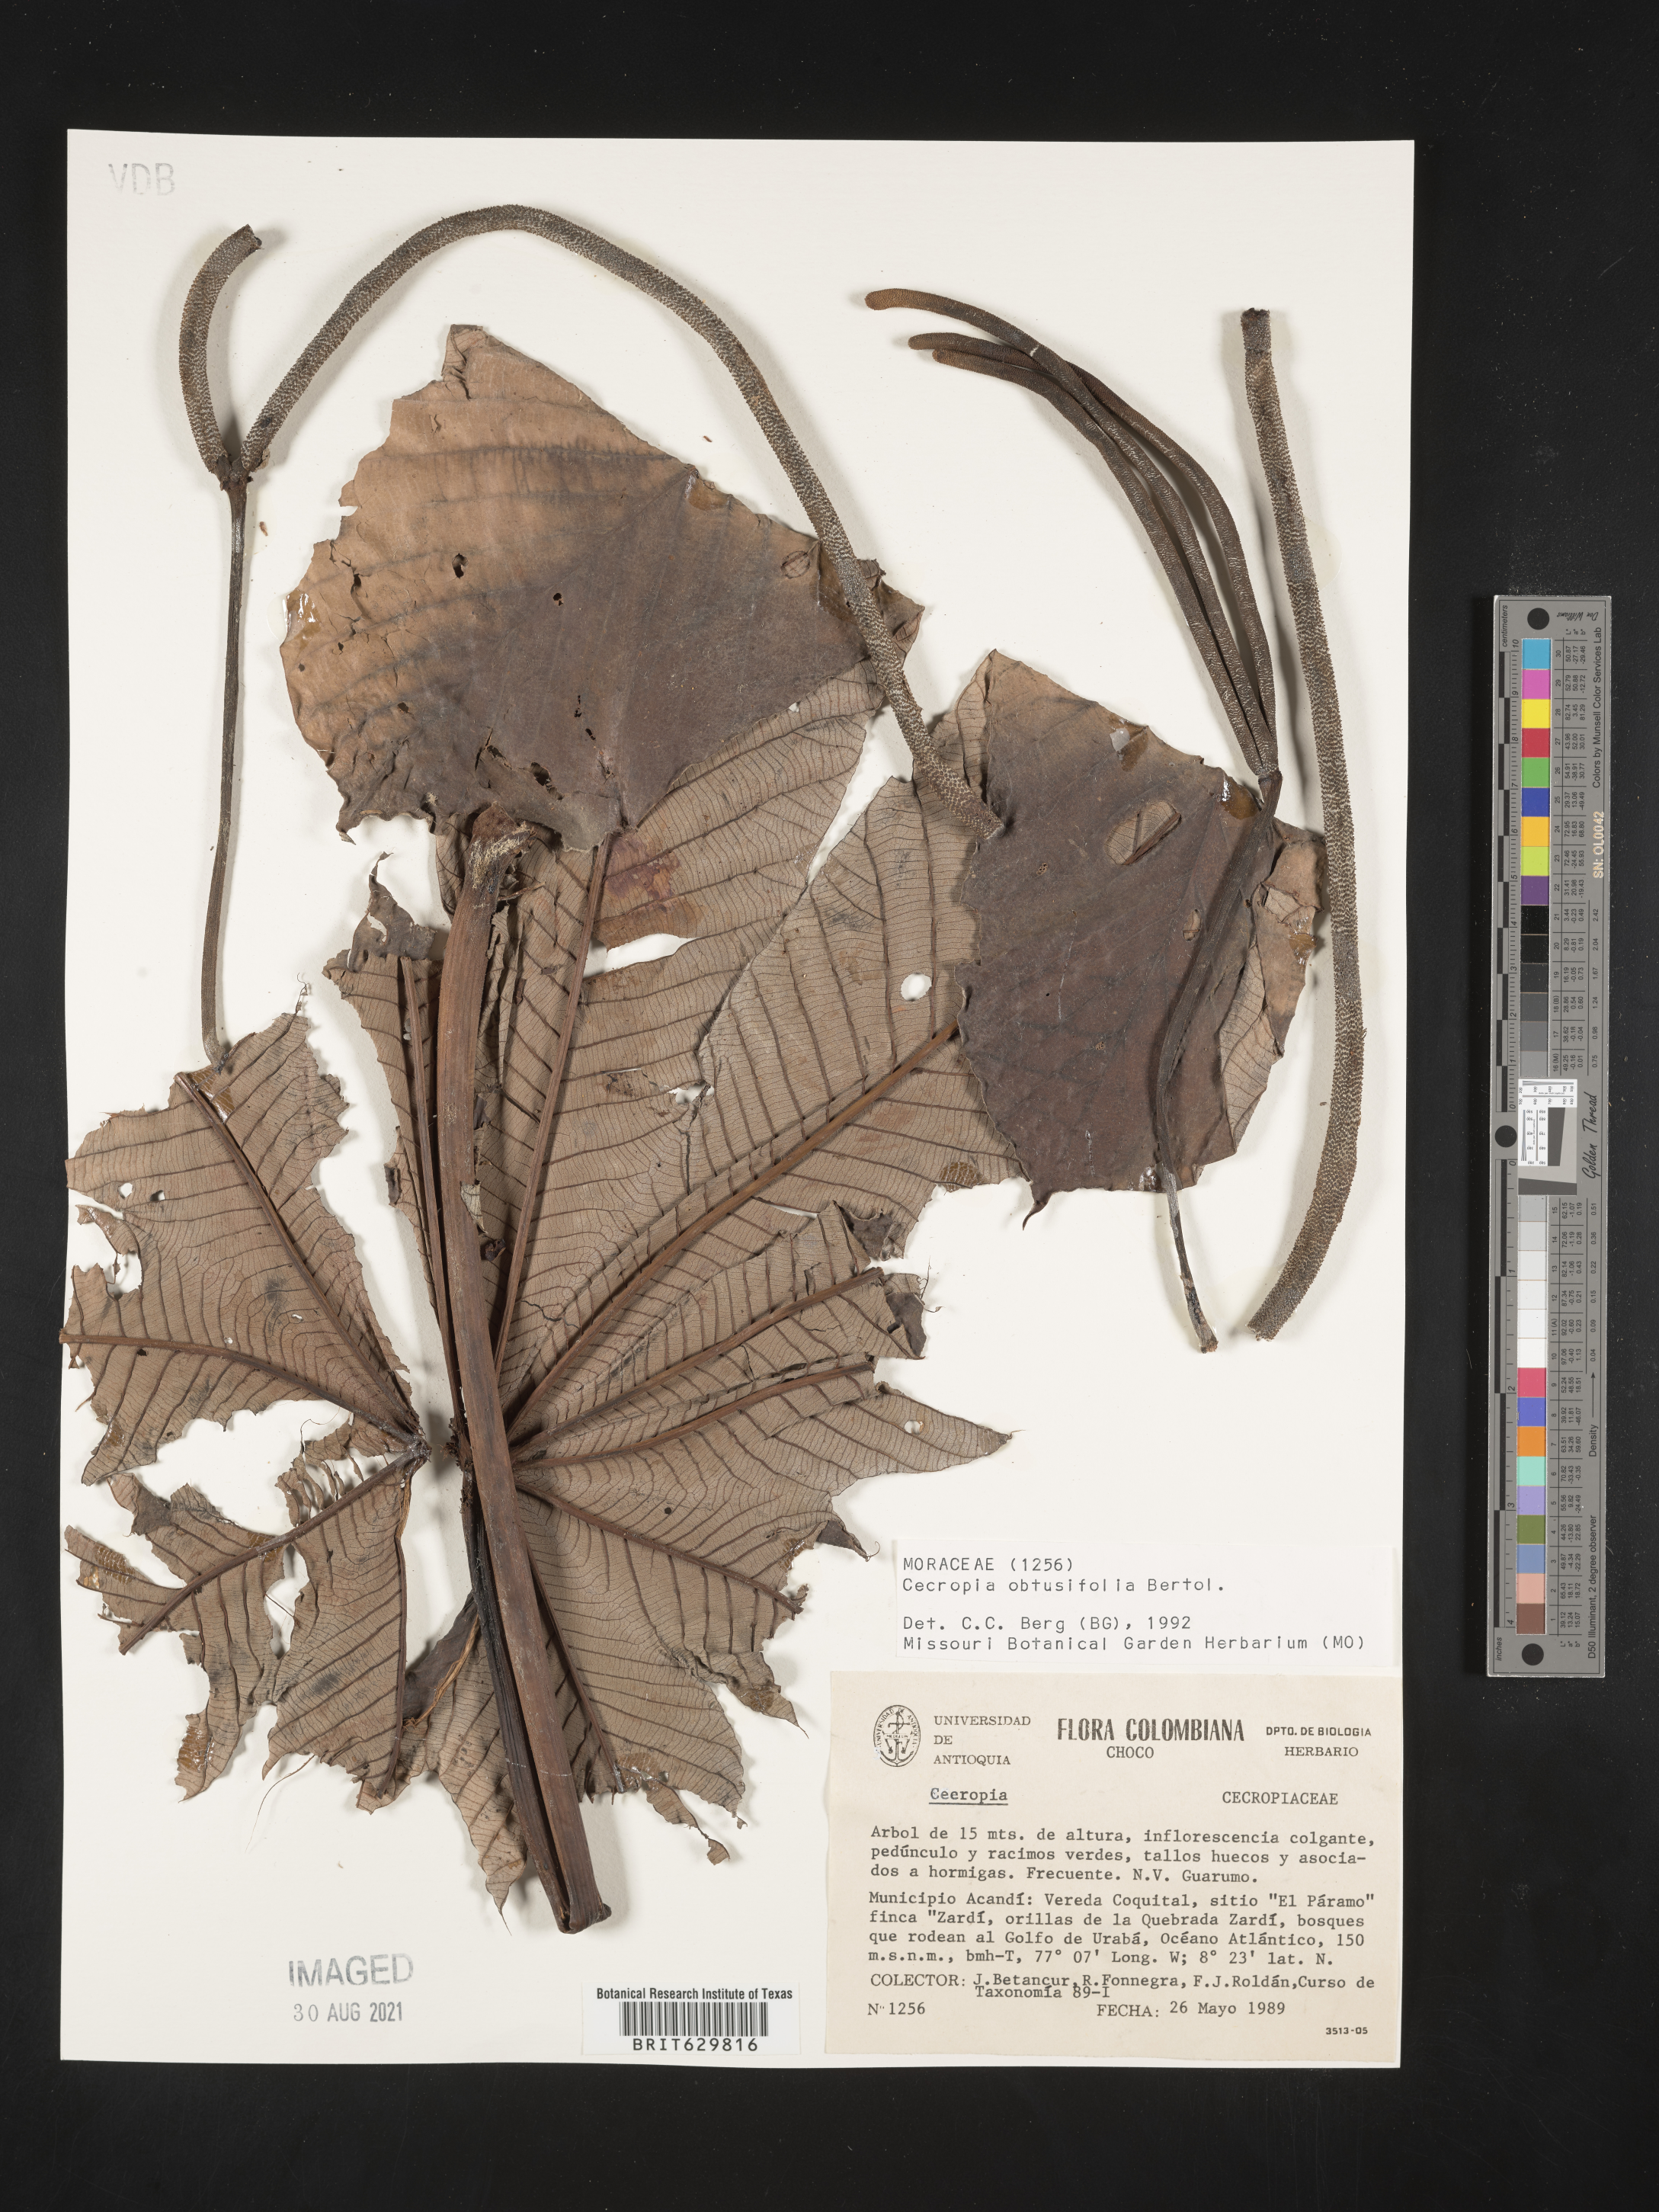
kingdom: Plantae
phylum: Tracheophyta
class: Magnoliopsida
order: Rosales
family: Urticaceae
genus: Cecropia
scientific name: Cecropia
